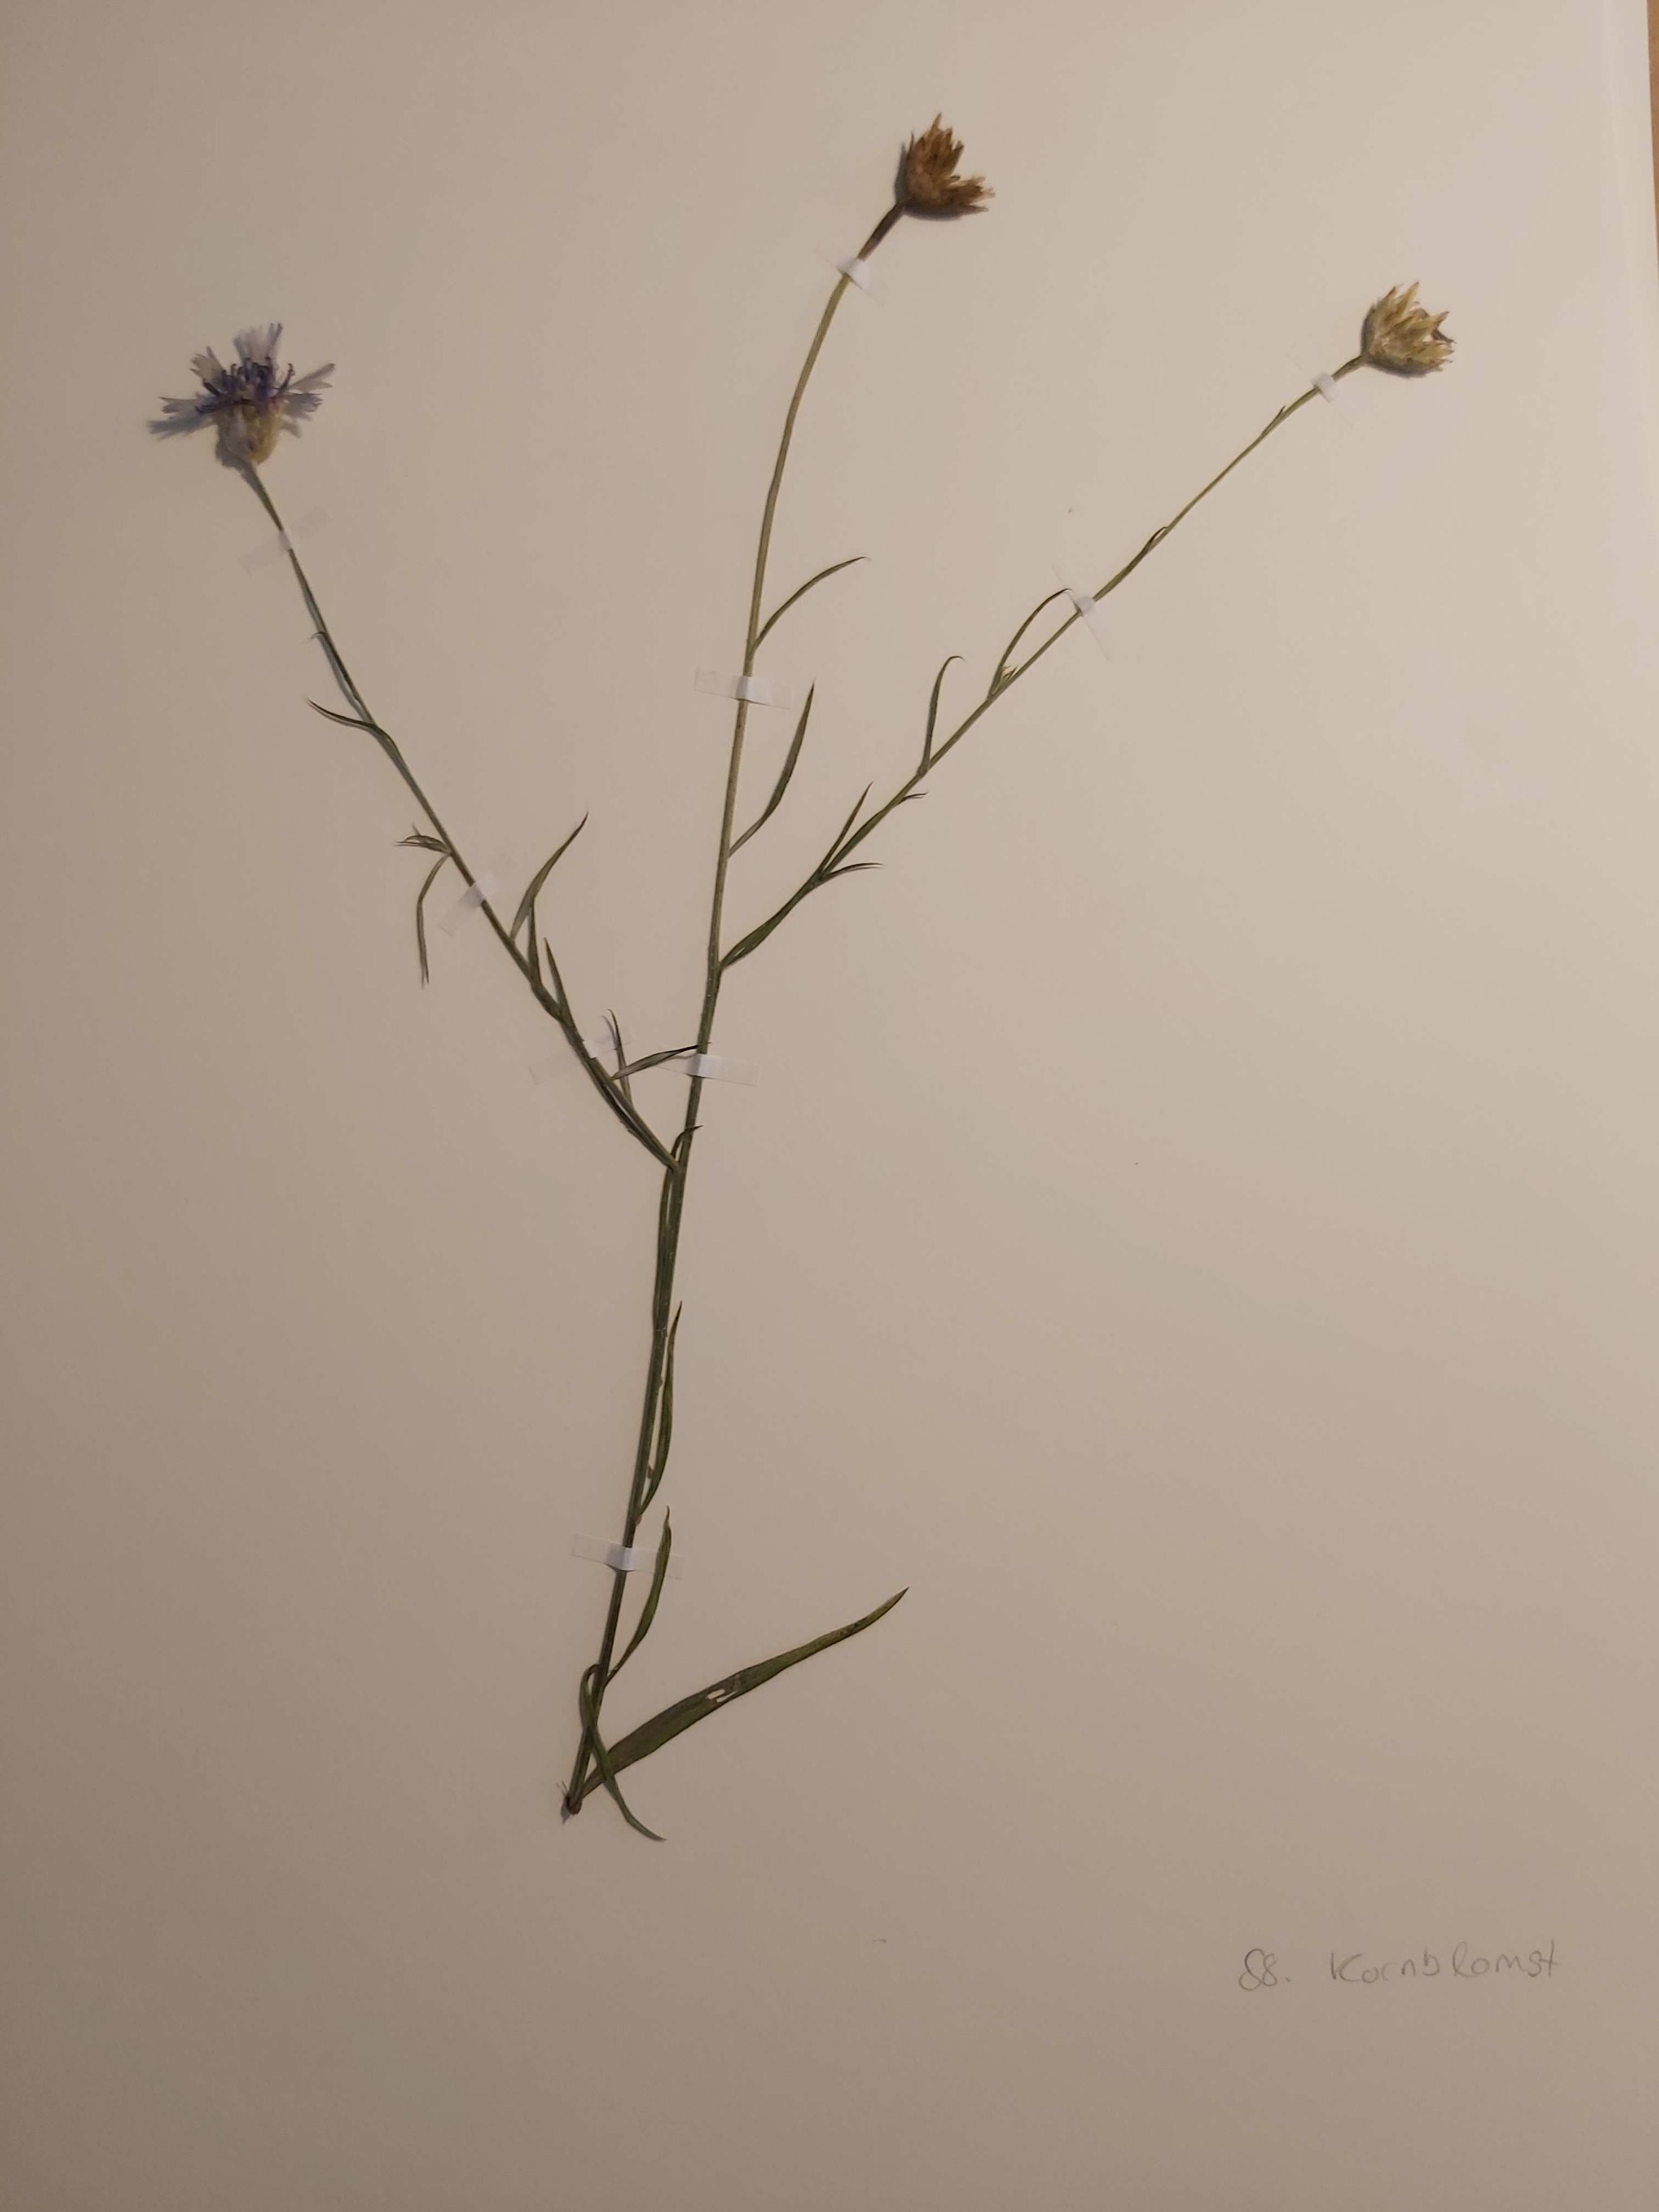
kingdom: Plantae
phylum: Tracheophyta
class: Magnoliopsida
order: Asterales
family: Asteraceae
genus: Centaurea
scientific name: Centaurea cyanus
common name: Kornblomst
